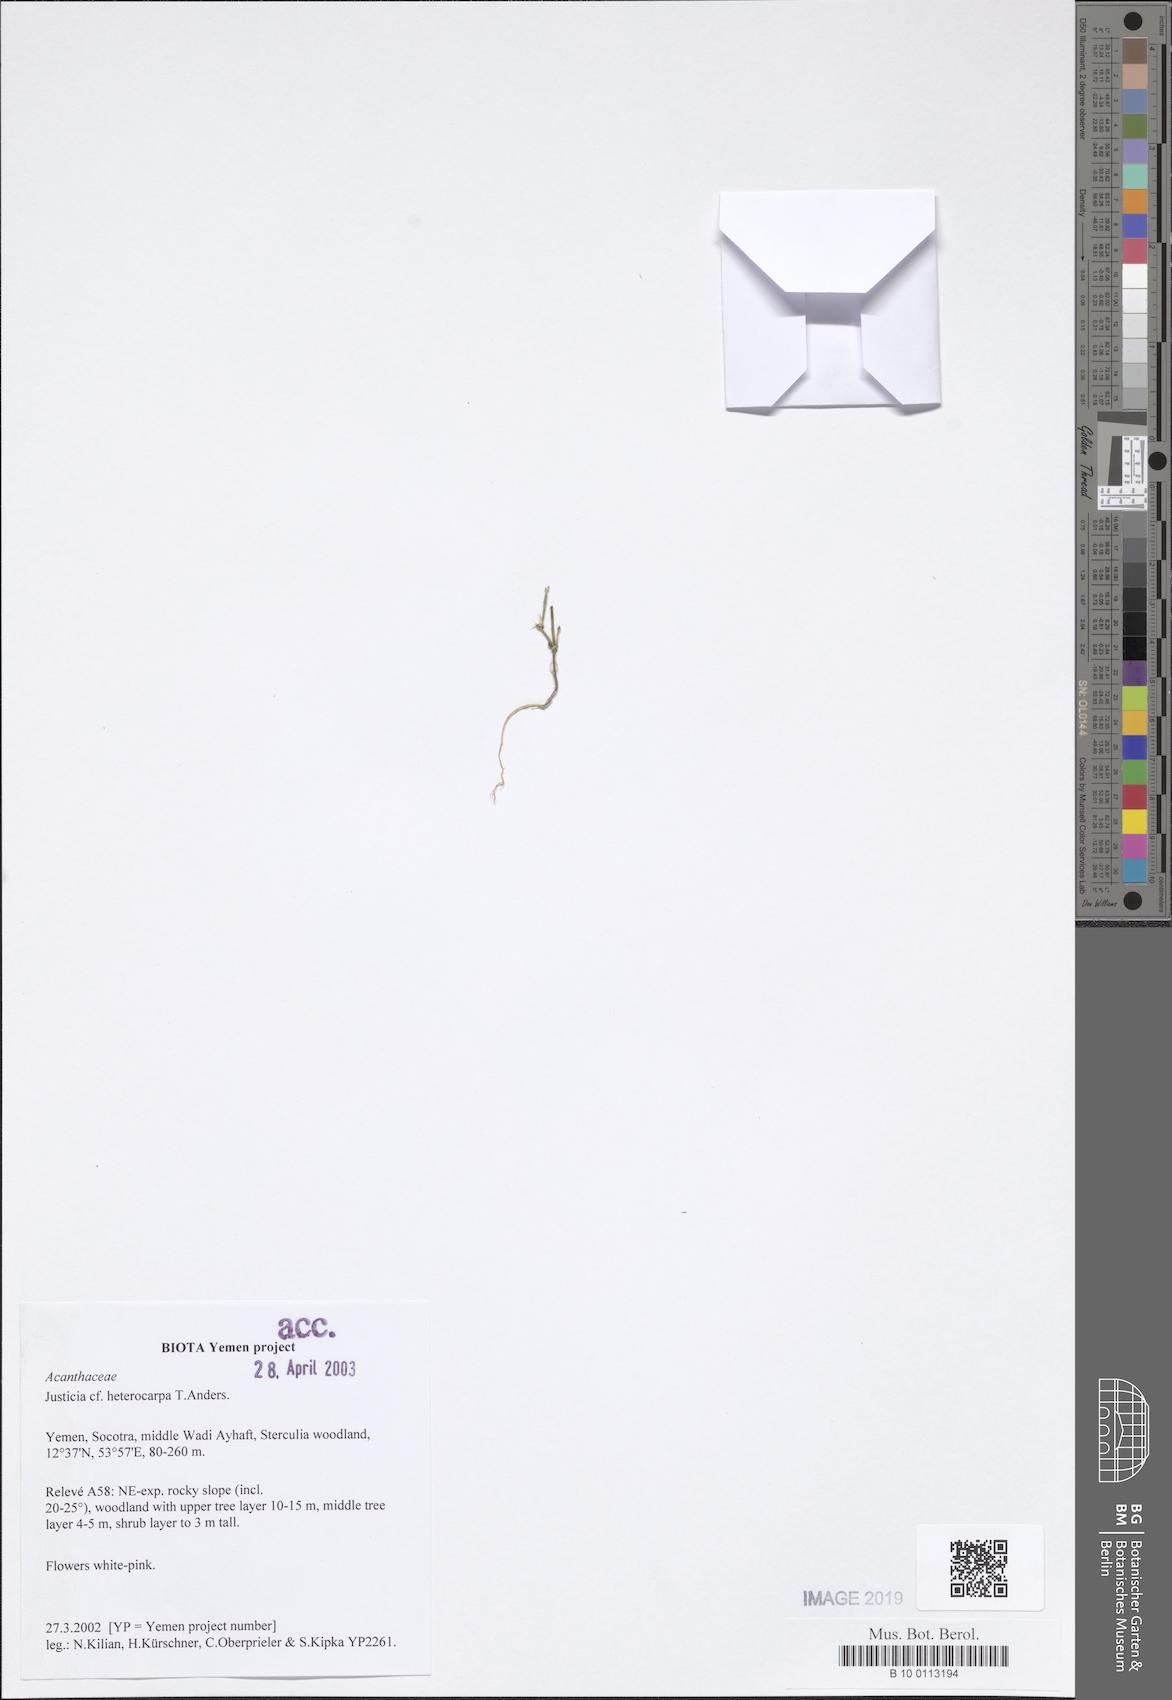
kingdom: Plantae
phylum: Tracheophyta
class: Magnoliopsida
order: Lamiales
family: Acanthaceae
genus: Justicia
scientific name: Justicia heterocarpa
